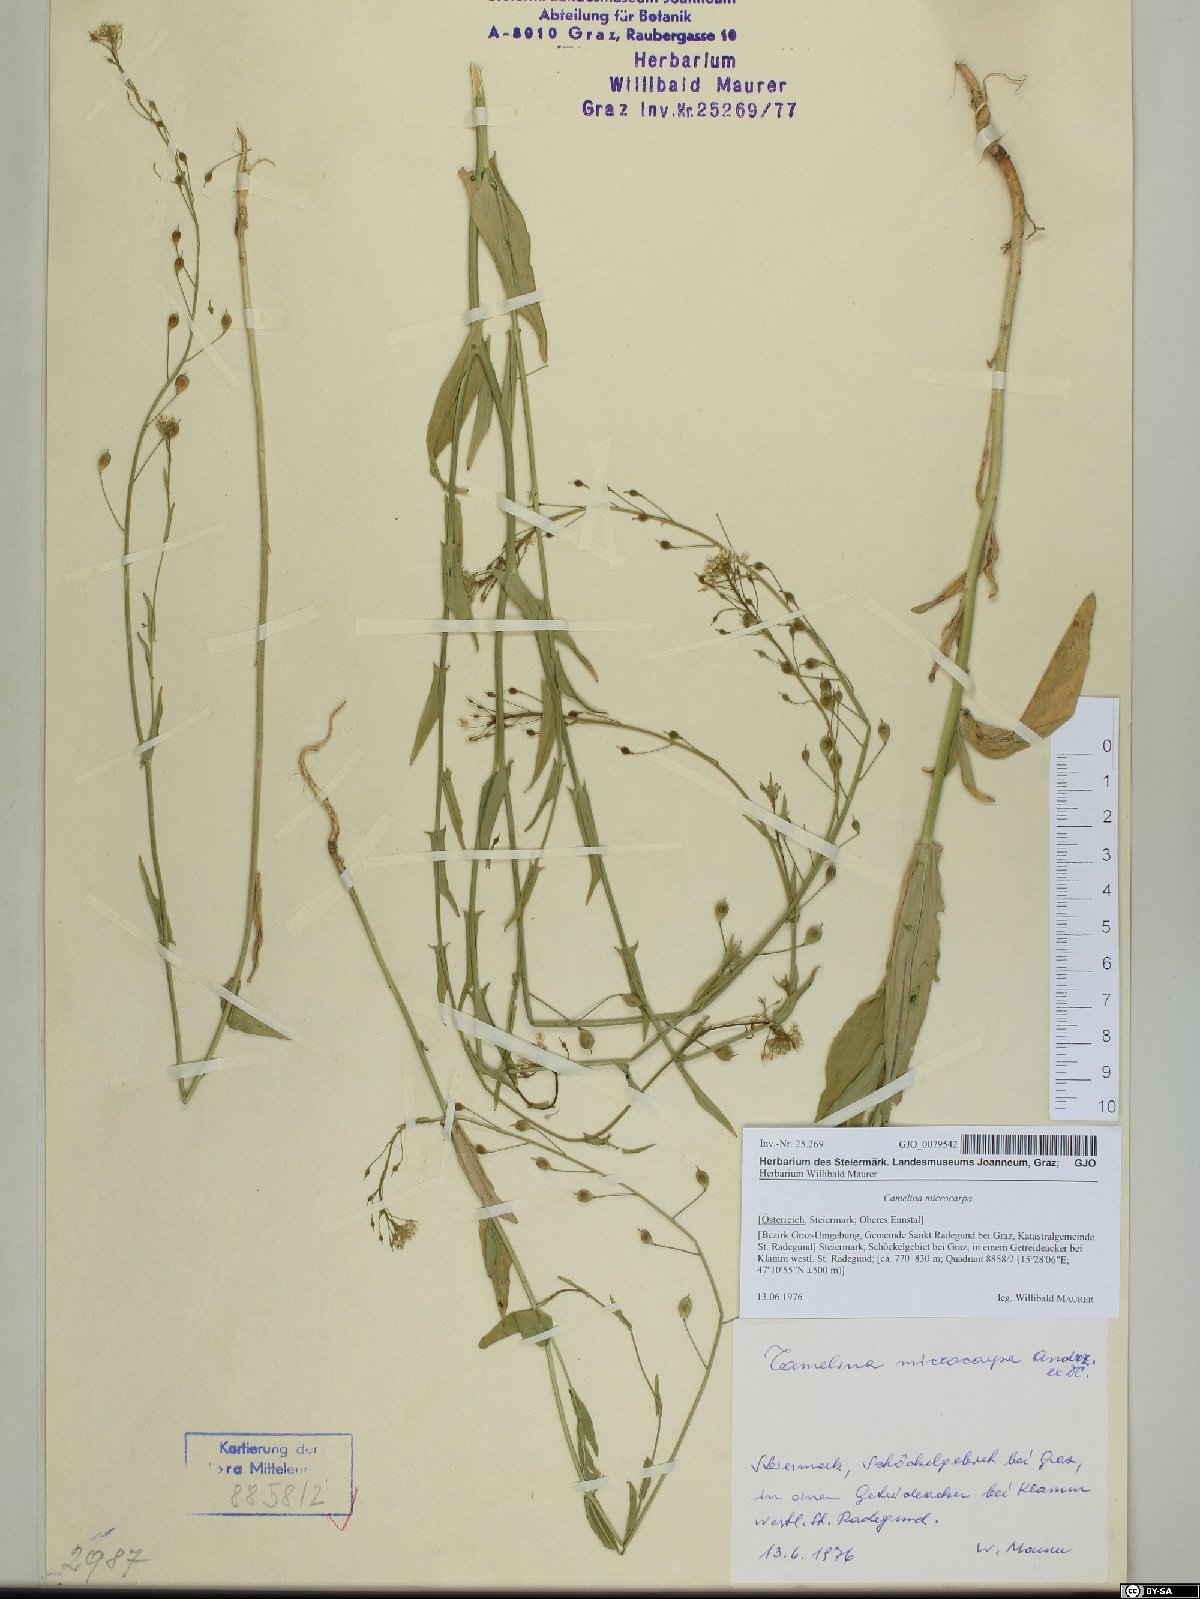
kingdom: Plantae
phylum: Tracheophyta
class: Magnoliopsida
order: Brassicales
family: Brassicaceae
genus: Camelina
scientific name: Camelina microcarpa
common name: Lesser gold-of-pleasure
